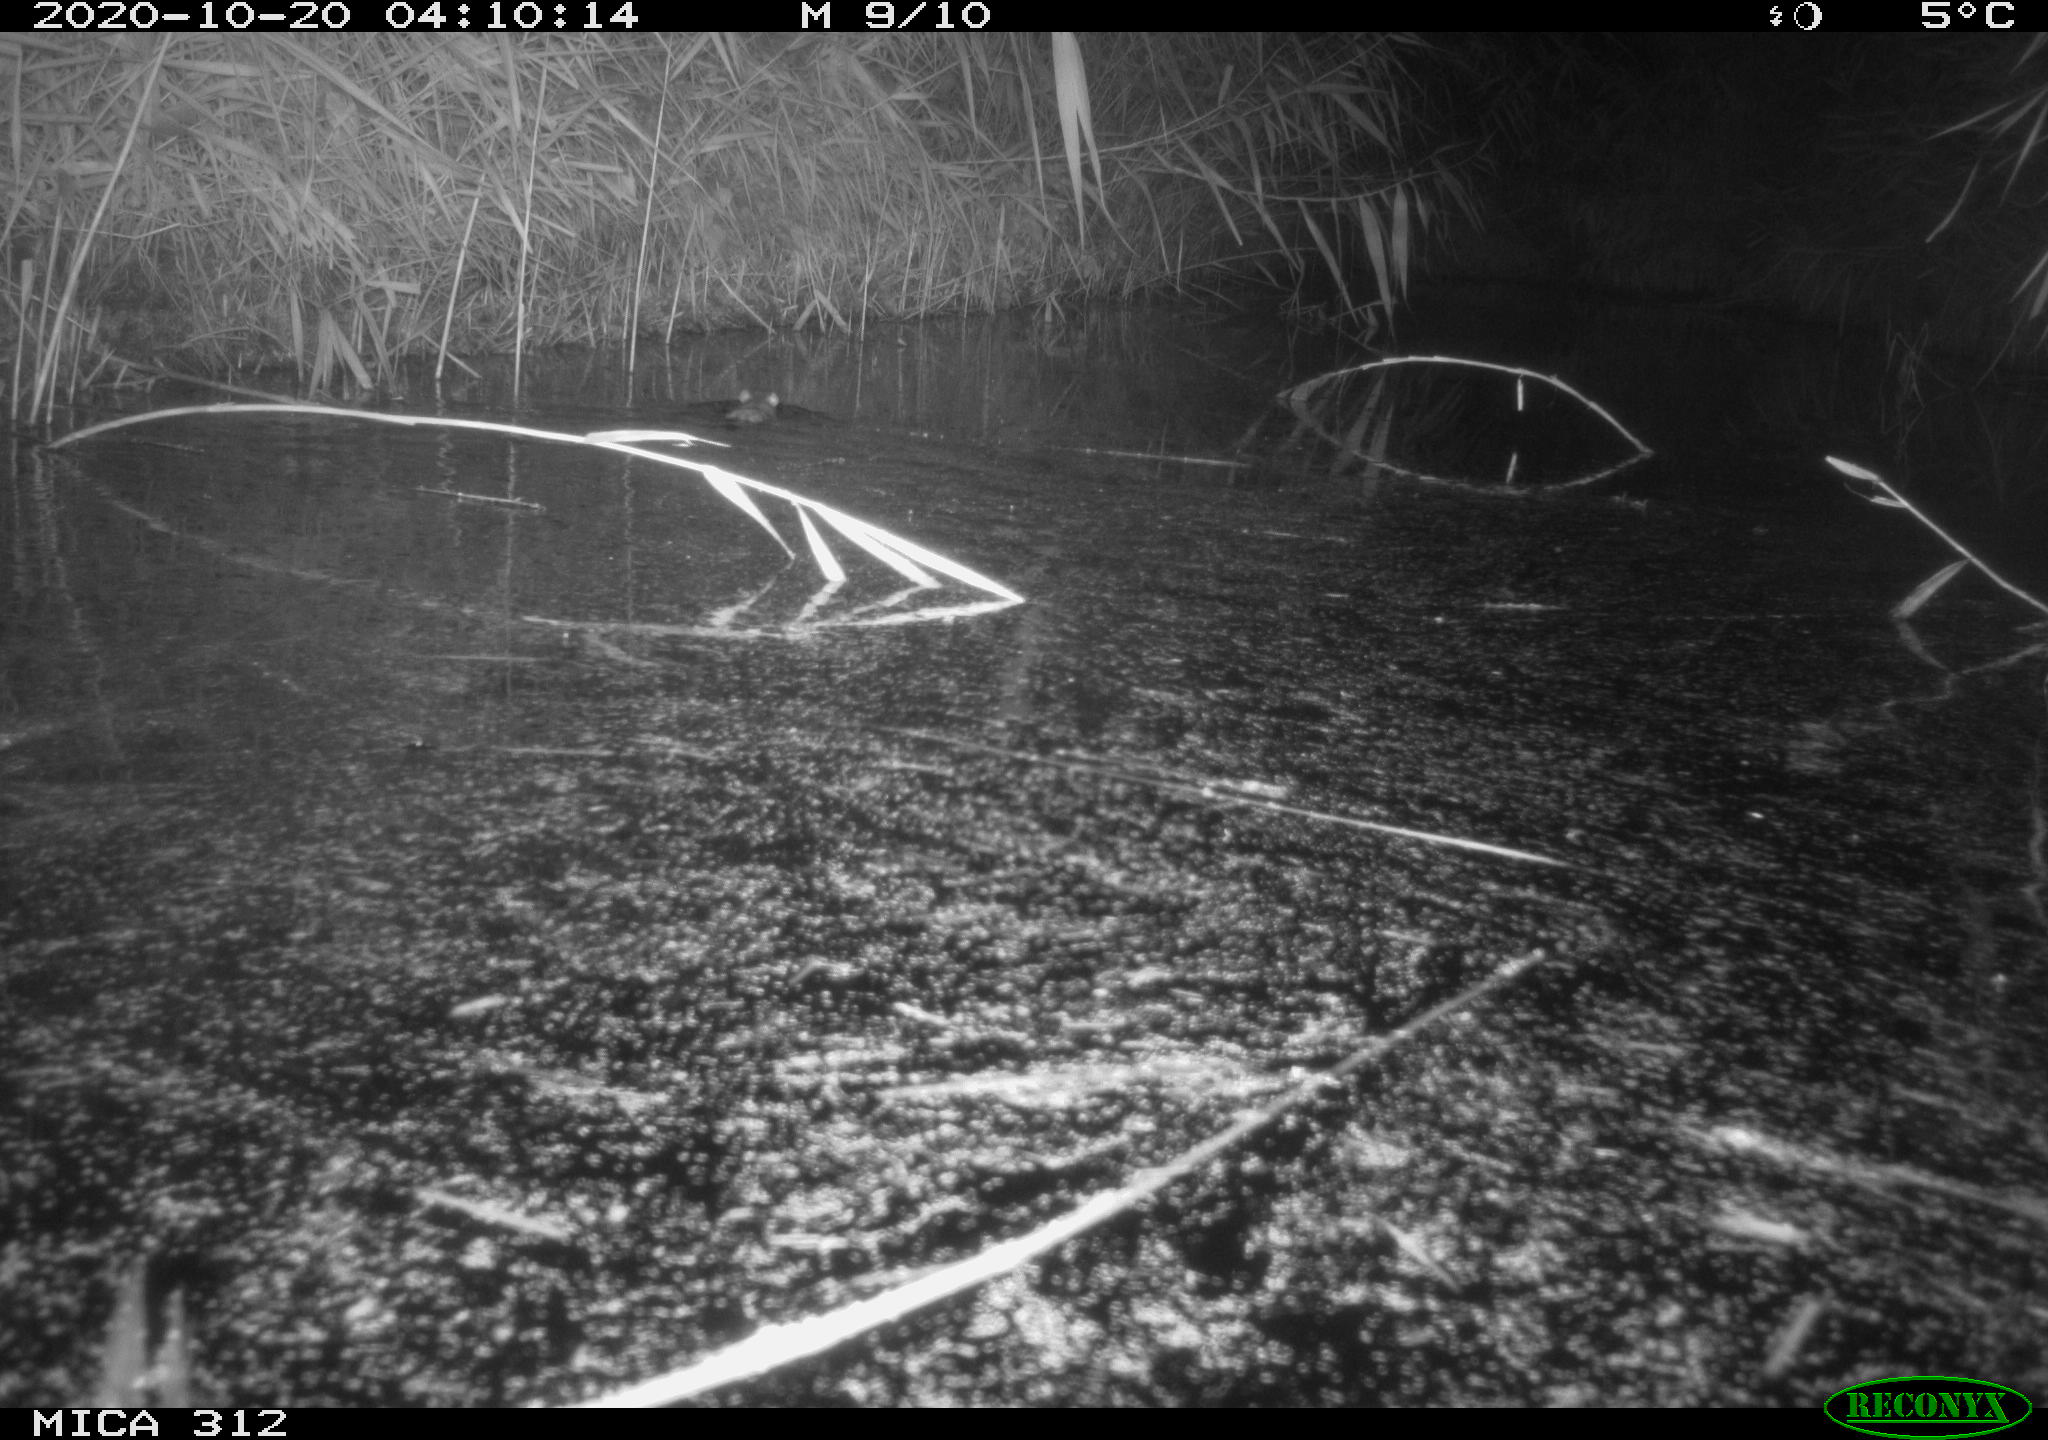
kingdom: Animalia
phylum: Chordata
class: Mammalia
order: Rodentia
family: Muridae
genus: Rattus
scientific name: Rattus norvegicus
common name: Brown rat
